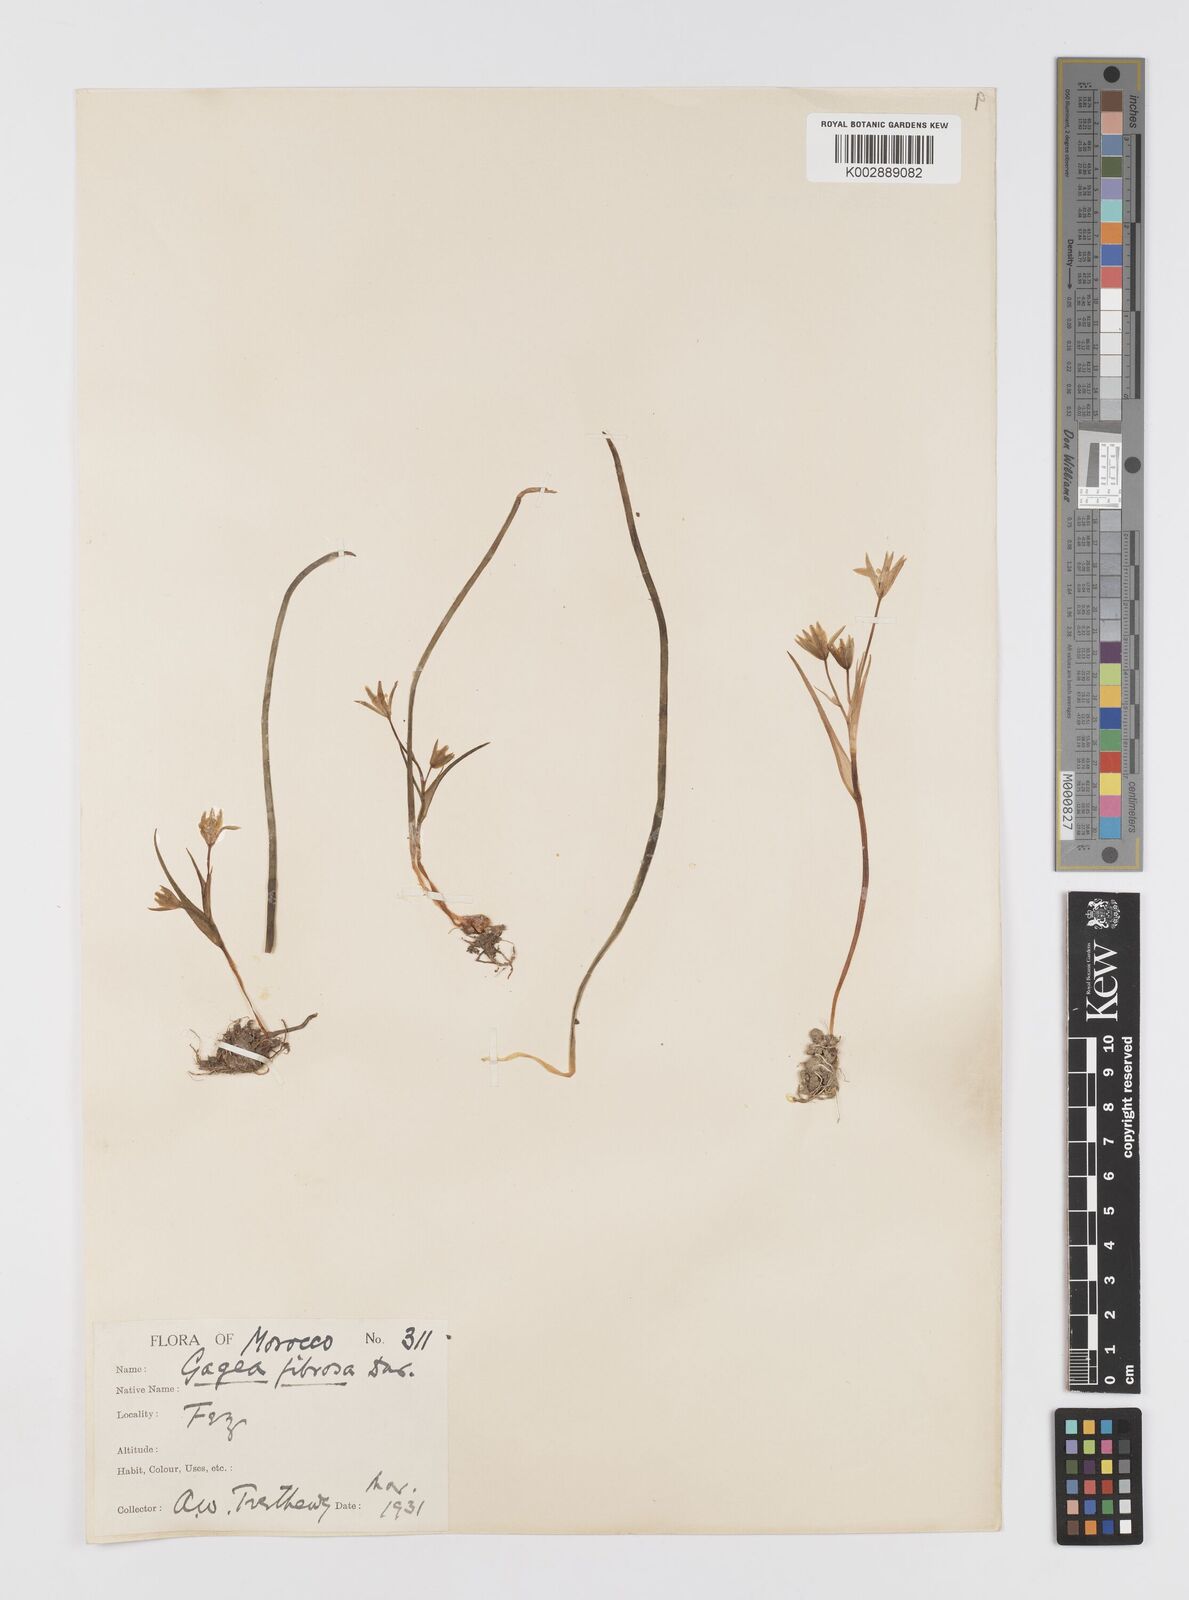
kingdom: Plantae
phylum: Tracheophyta
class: Liliopsida
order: Liliales
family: Liliaceae
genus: Gagea
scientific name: Gagea
